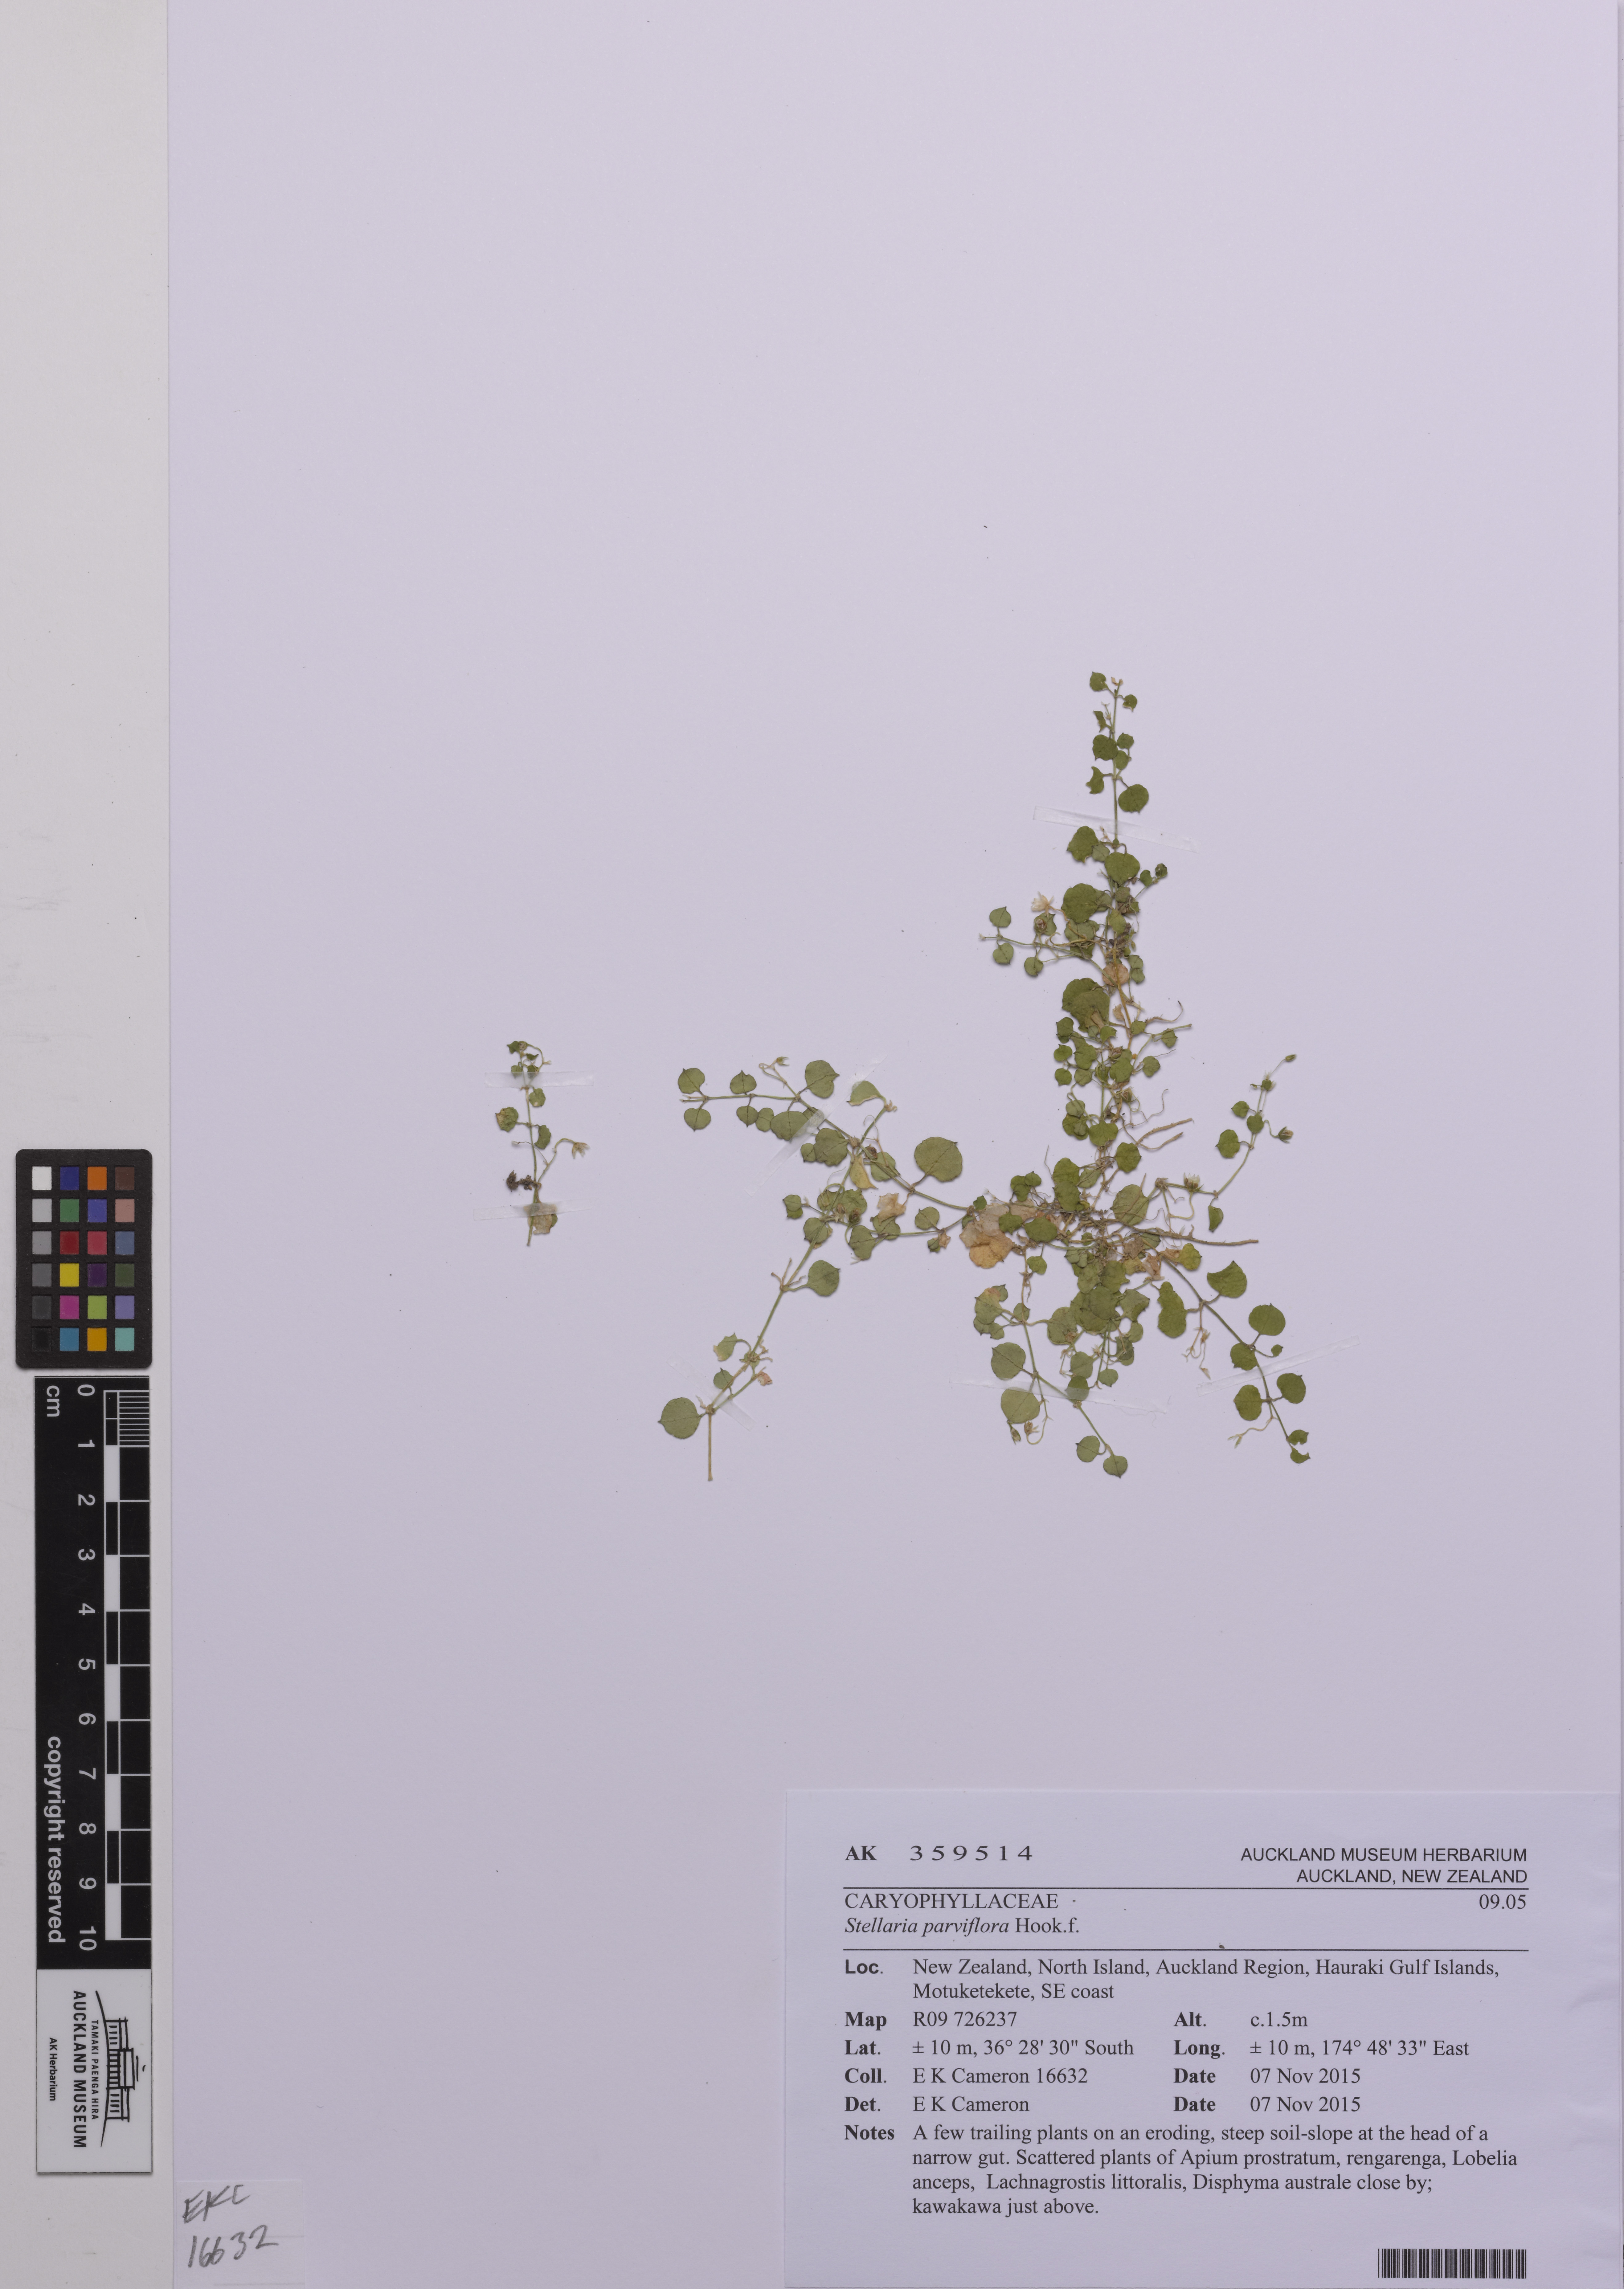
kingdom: Plantae
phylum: Tracheophyta
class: Magnoliopsida
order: Caryophyllales
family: Caryophyllaceae
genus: Stellaria
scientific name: Stellaria parviflora
